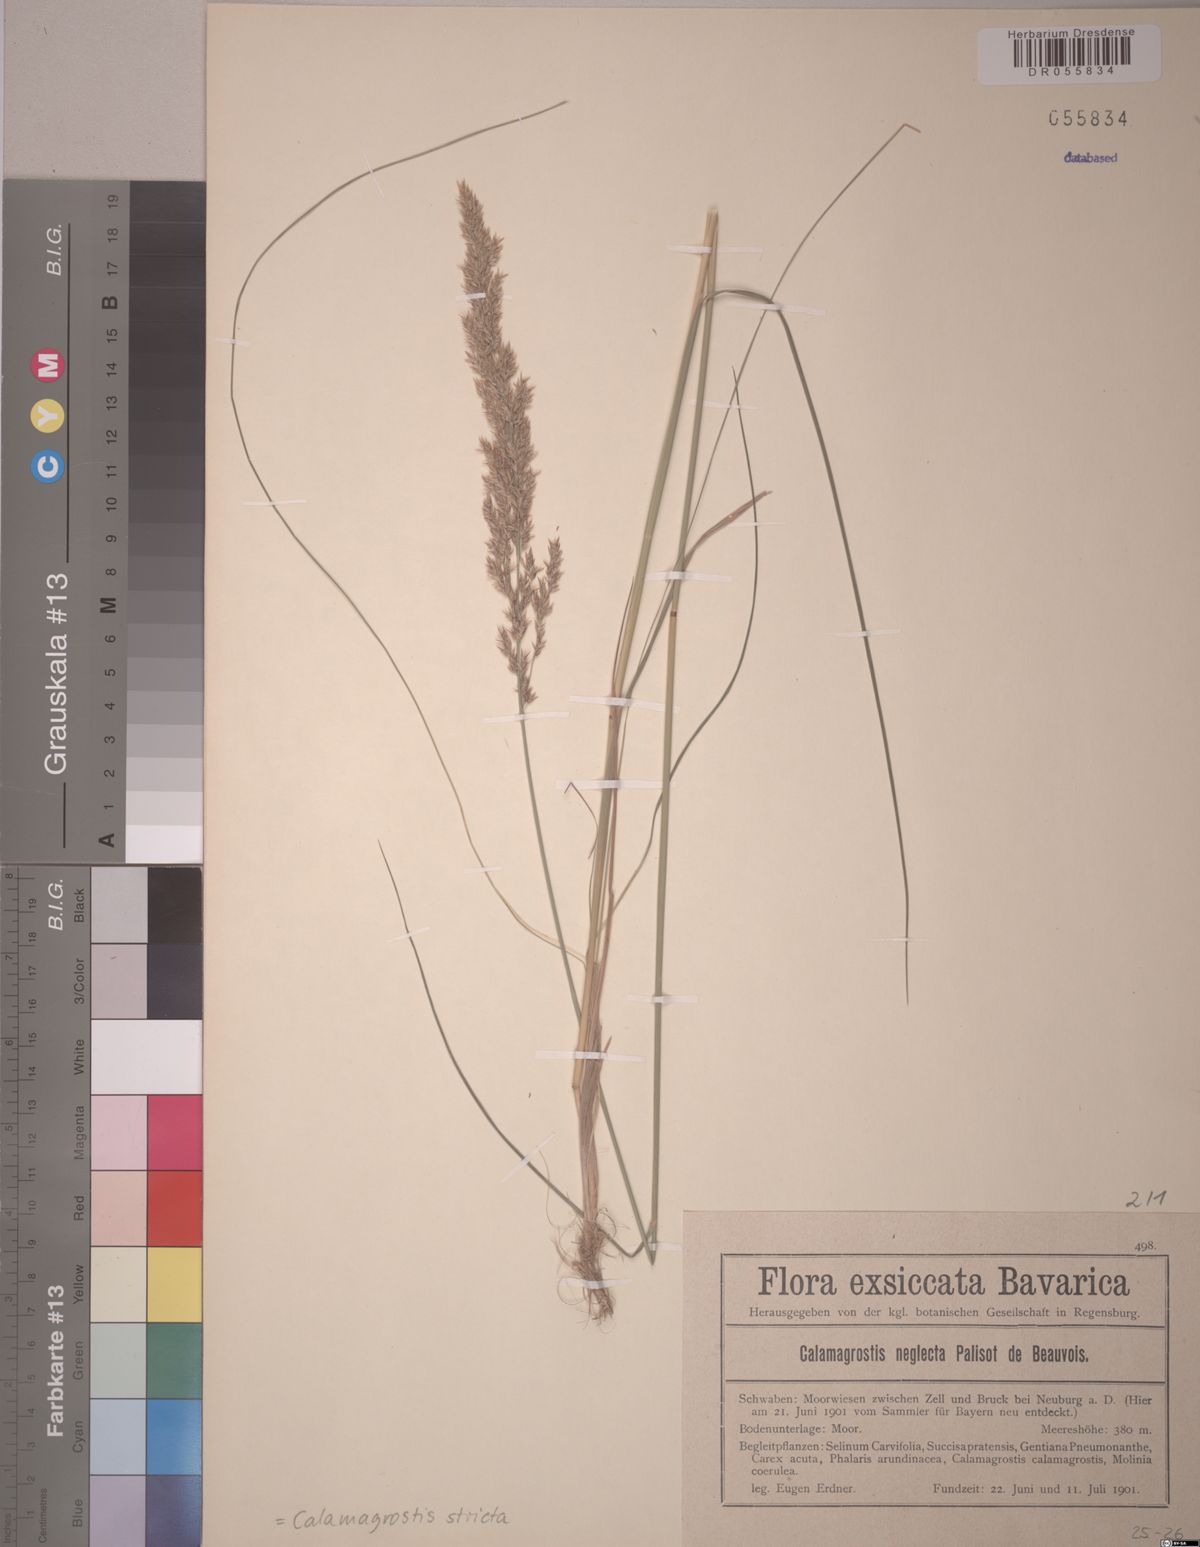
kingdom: Plantae
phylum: Tracheophyta
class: Liliopsida
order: Poales
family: Poaceae
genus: Calamagrostis
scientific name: Calamagrostis stricta
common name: Narrow small-reed
